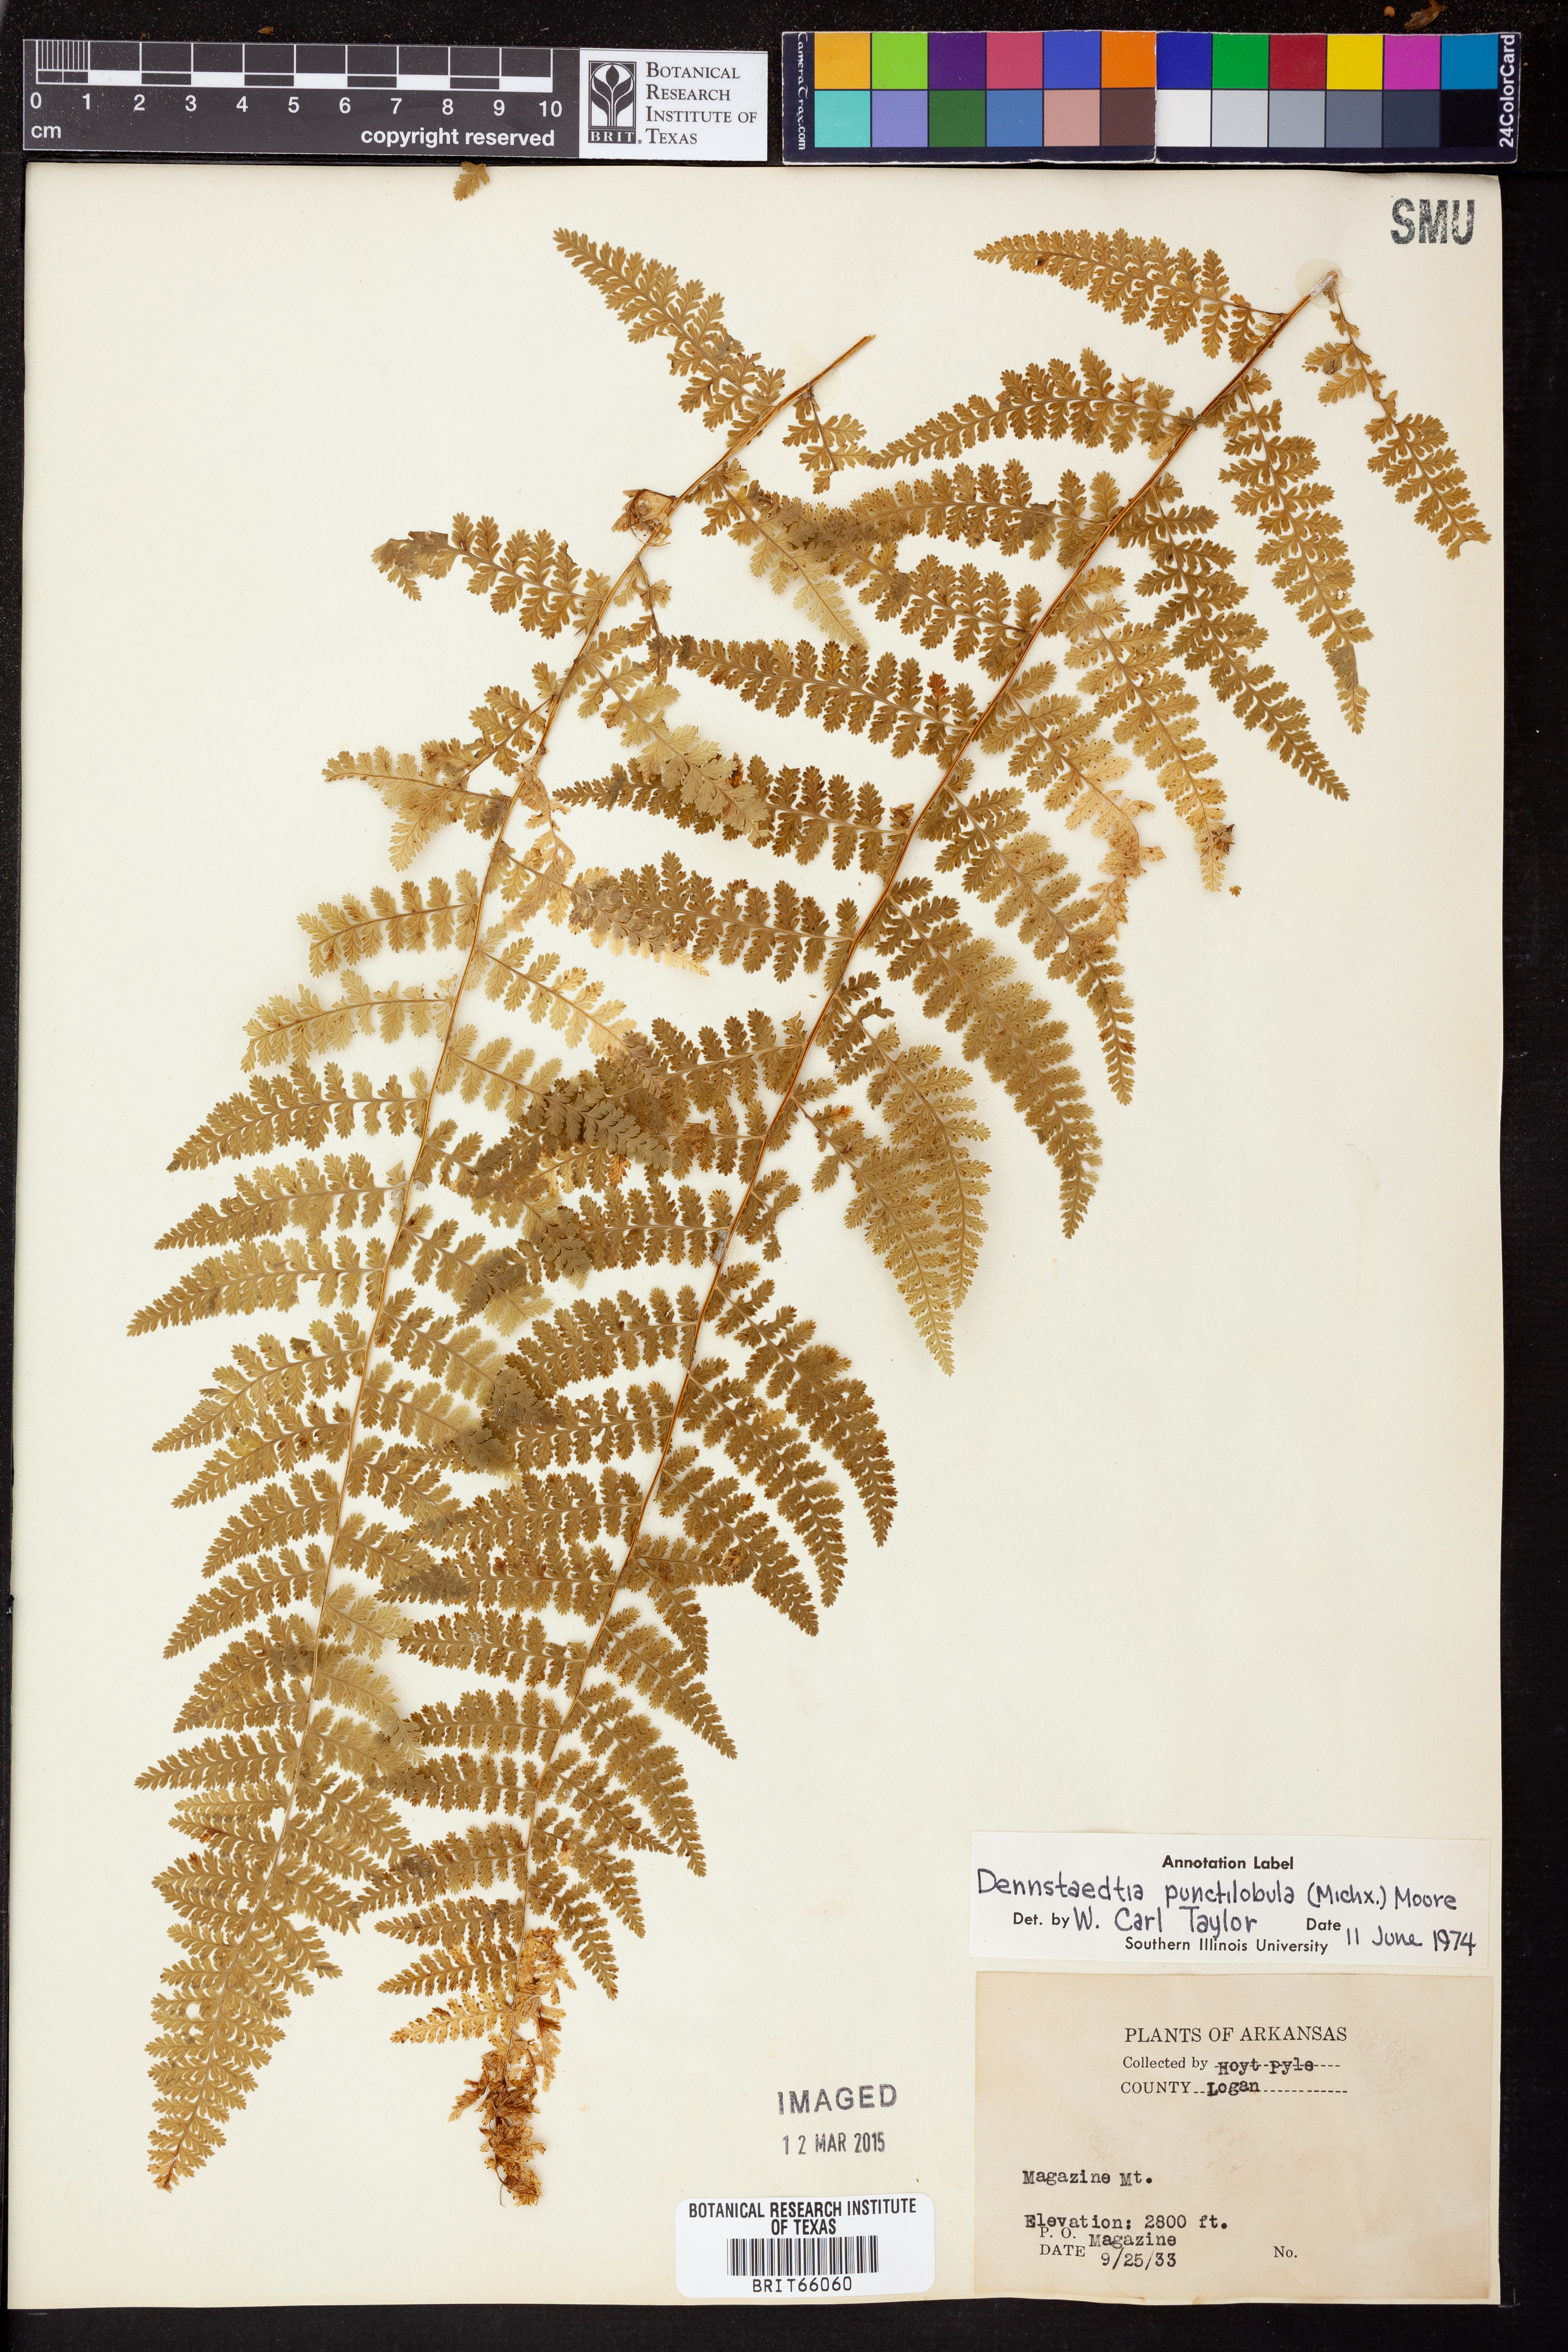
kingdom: Plantae
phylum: Tracheophyta
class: Polypodiopsida
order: Polypodiales
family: Dennstaedtiaceae
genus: Sitobolium
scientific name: Sitobolium punctilobum
